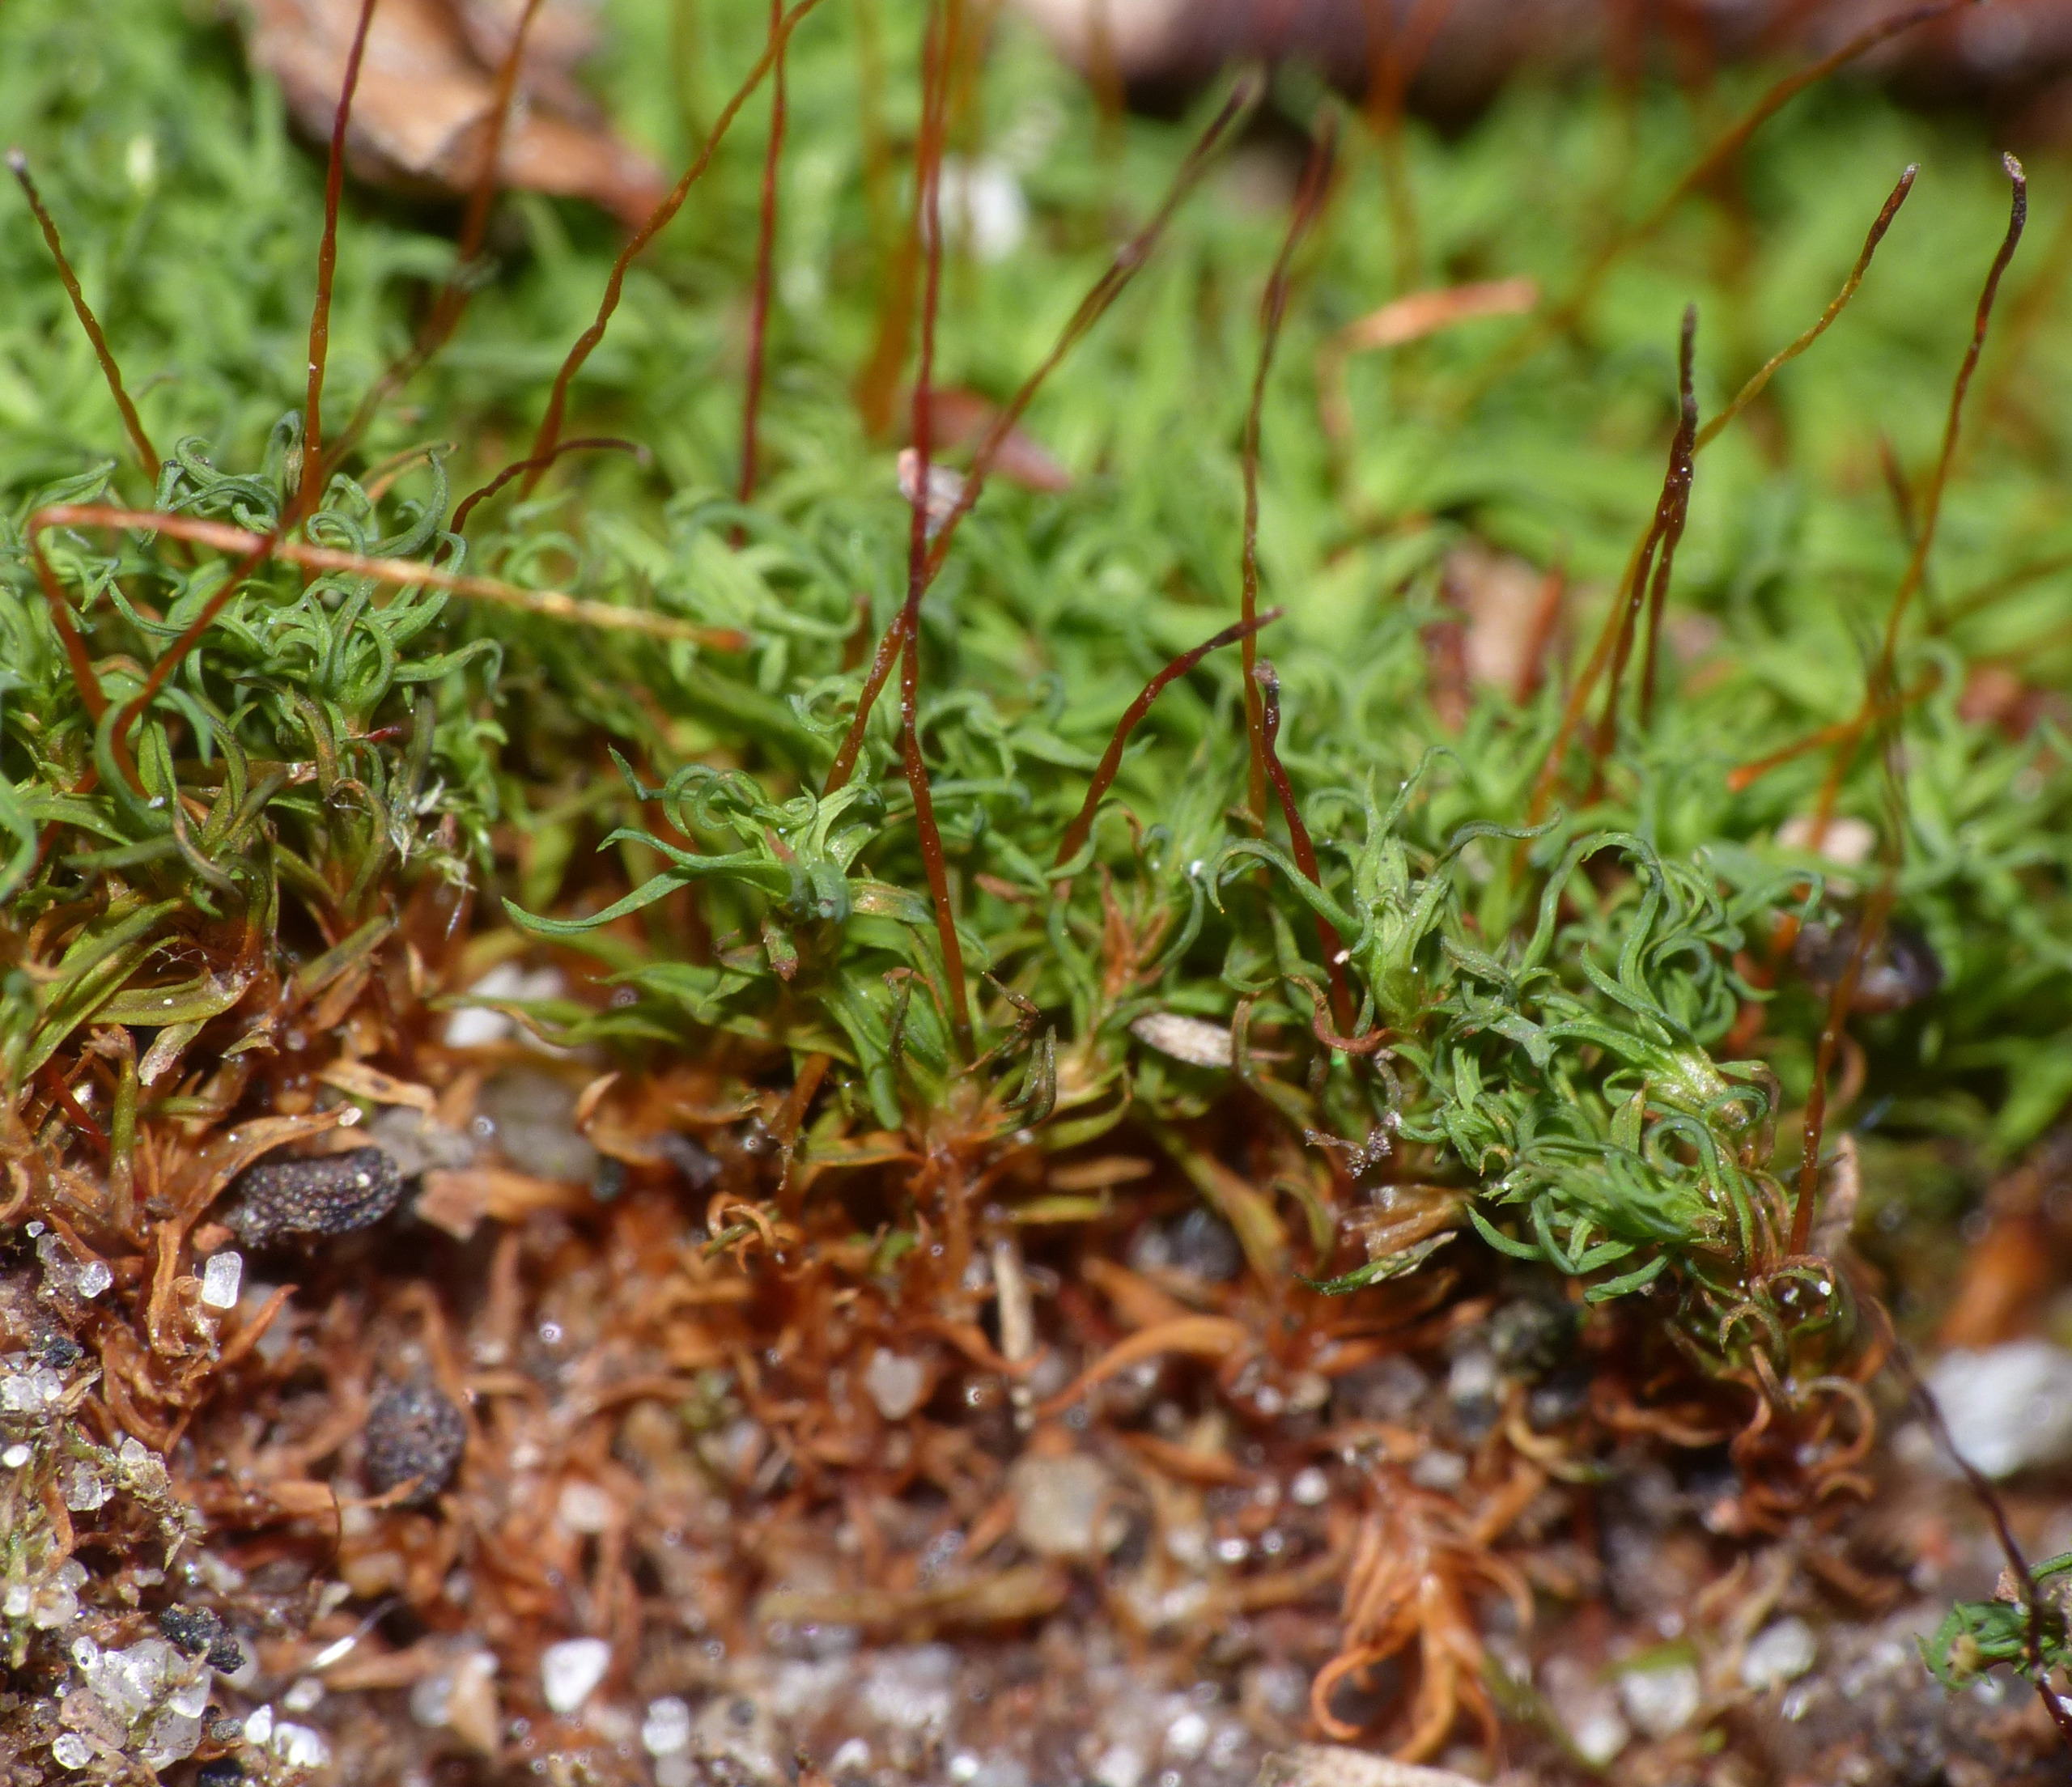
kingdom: Plantae
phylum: Bryophyta
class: Bryopsida
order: Pottiales
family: Pottiaceae
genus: Bryoerythrophyllum
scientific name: Bryoerythrophyllum recurvirostrum
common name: Rød gammelblad
